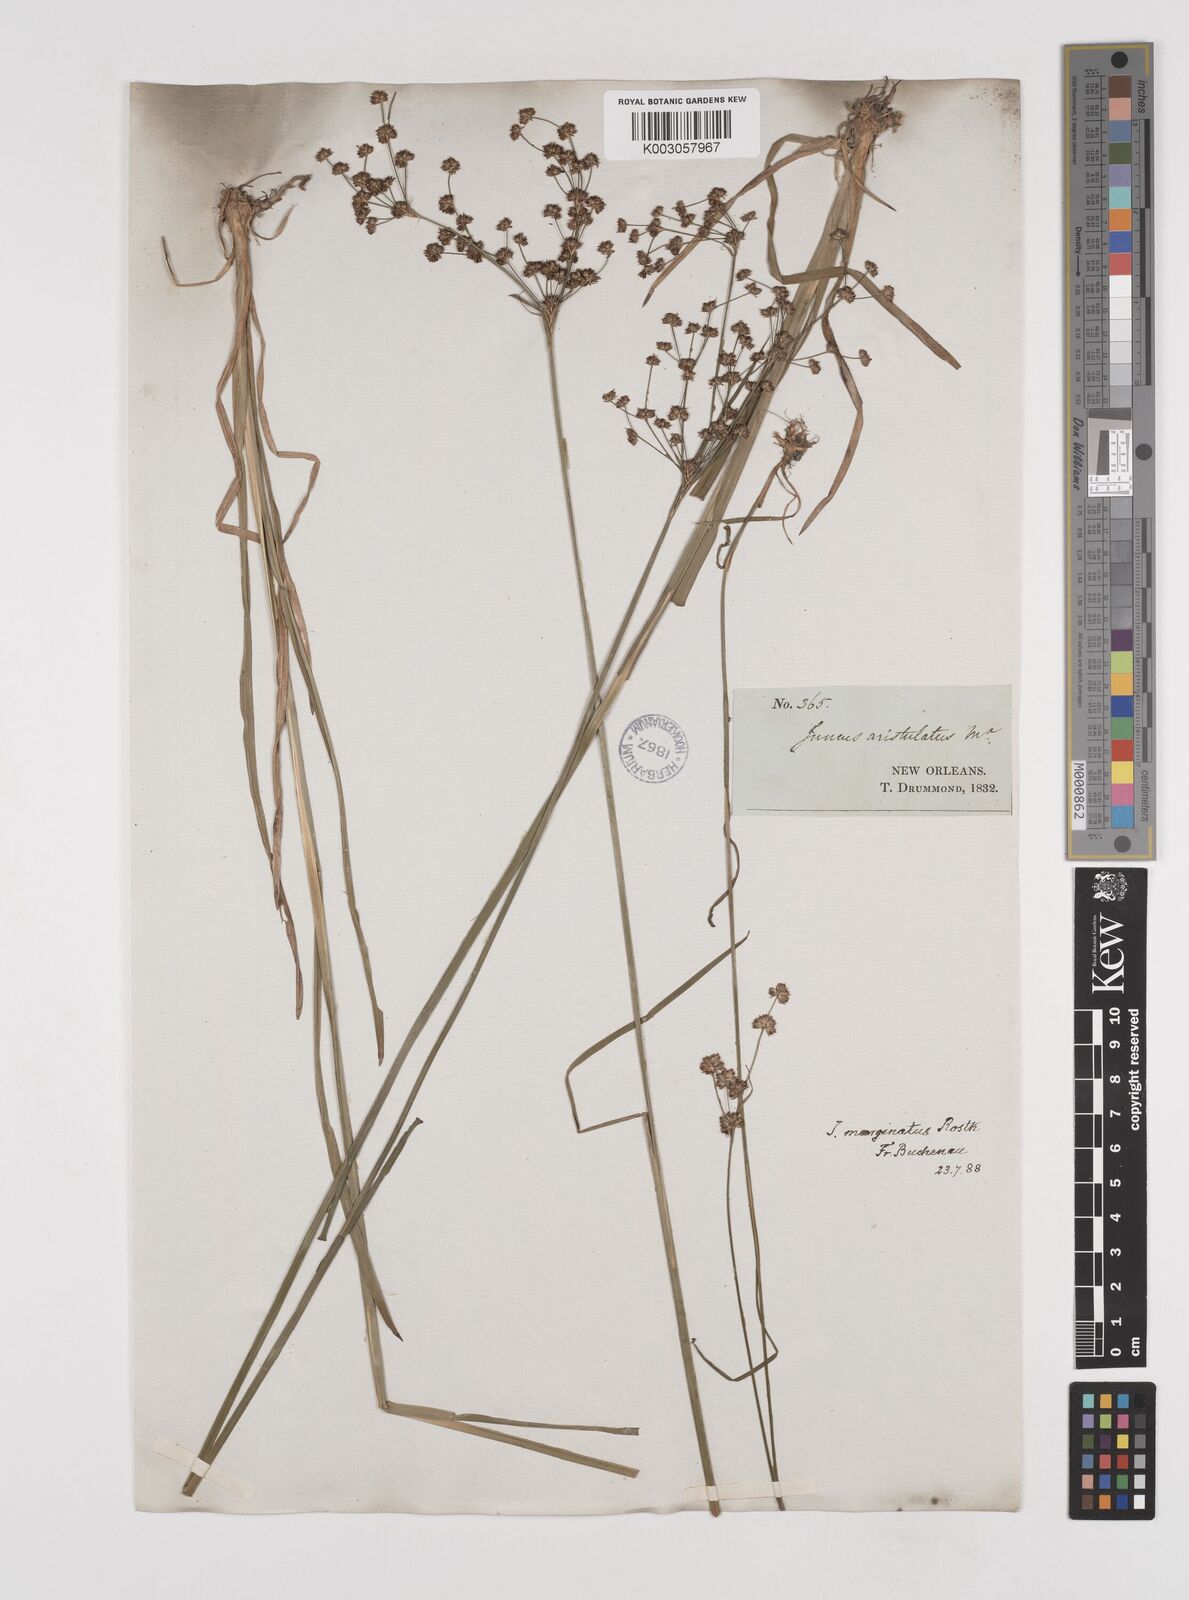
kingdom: Plantae
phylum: Tracheophyta
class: Liliopsida
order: Poales
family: Juncaceae
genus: Juncus
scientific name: Juncus marginatus
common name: Grass-leaf rush
